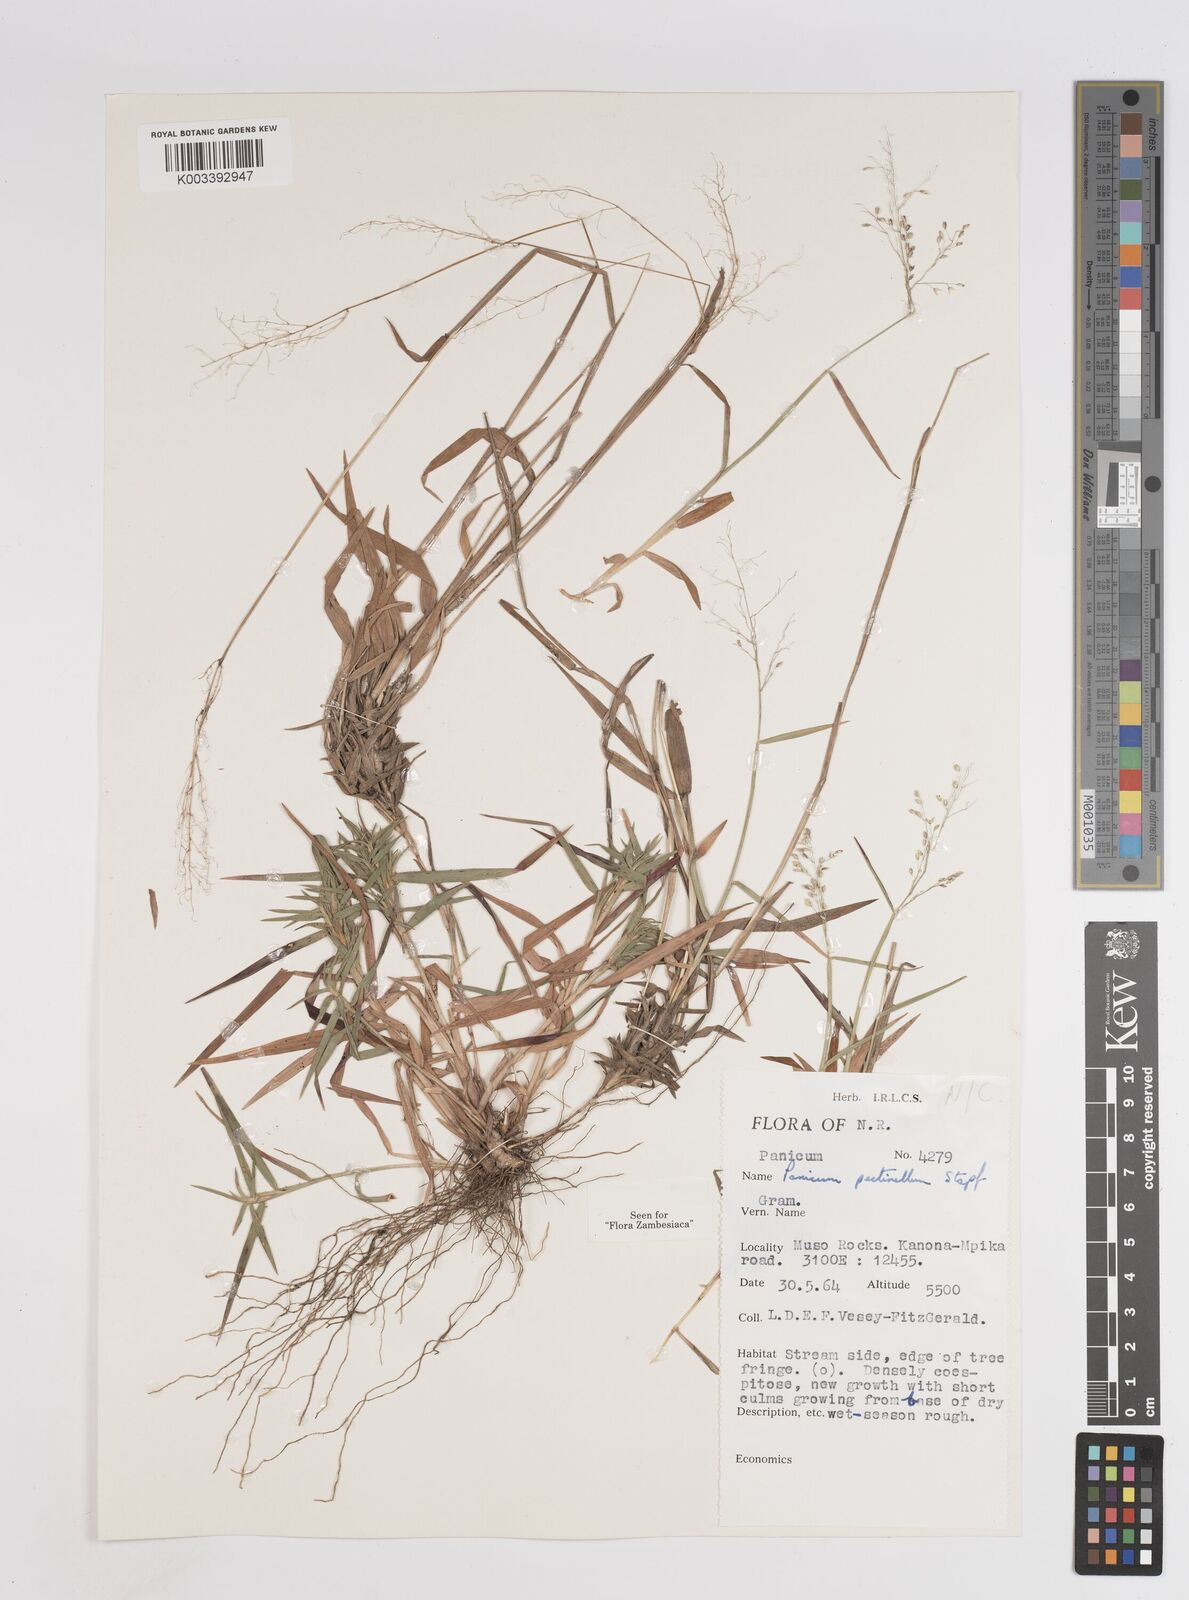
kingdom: Plantae
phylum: Tracheophyta
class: Liliopsida
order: Poales
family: Poaceae
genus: Adenochloa
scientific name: Adenochloa pectinella
